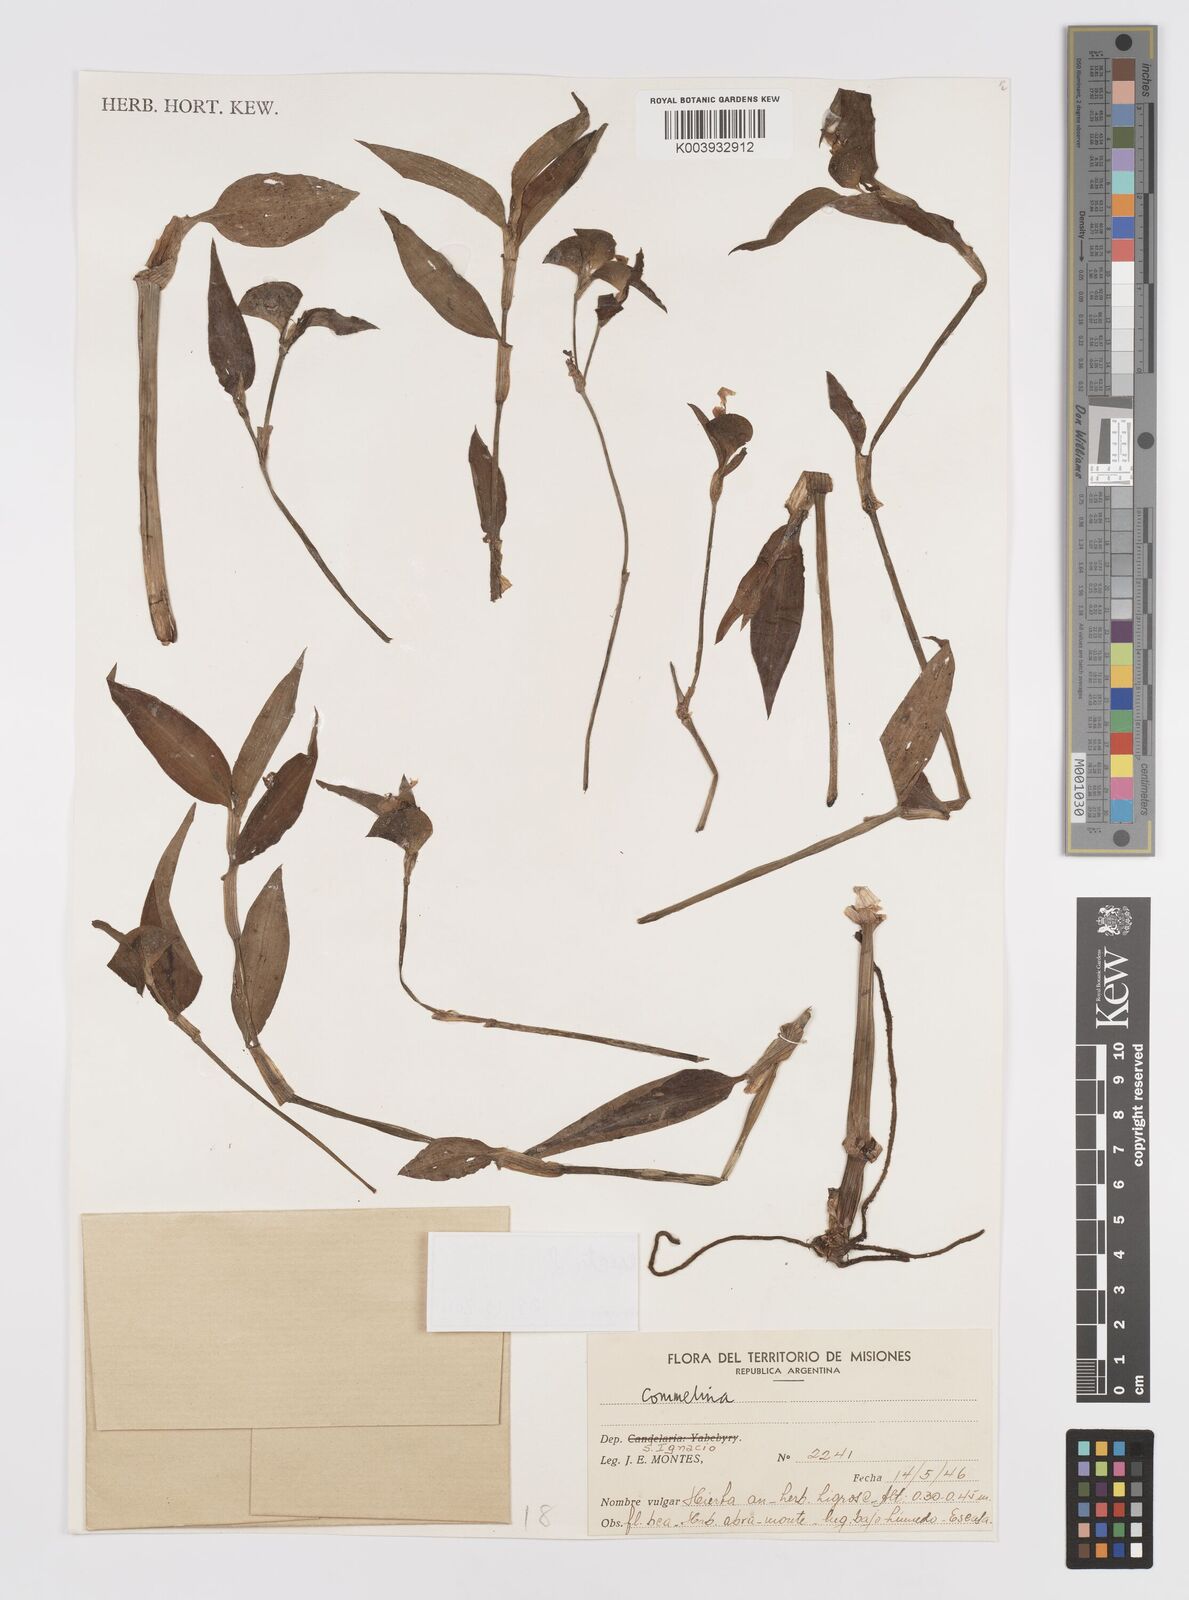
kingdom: Plantae
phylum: Tracheophyta
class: Liliopsida
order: Commelinales
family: Commelinaceae
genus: Commelina
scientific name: Commelina erecta
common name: Blousel blommetjie
